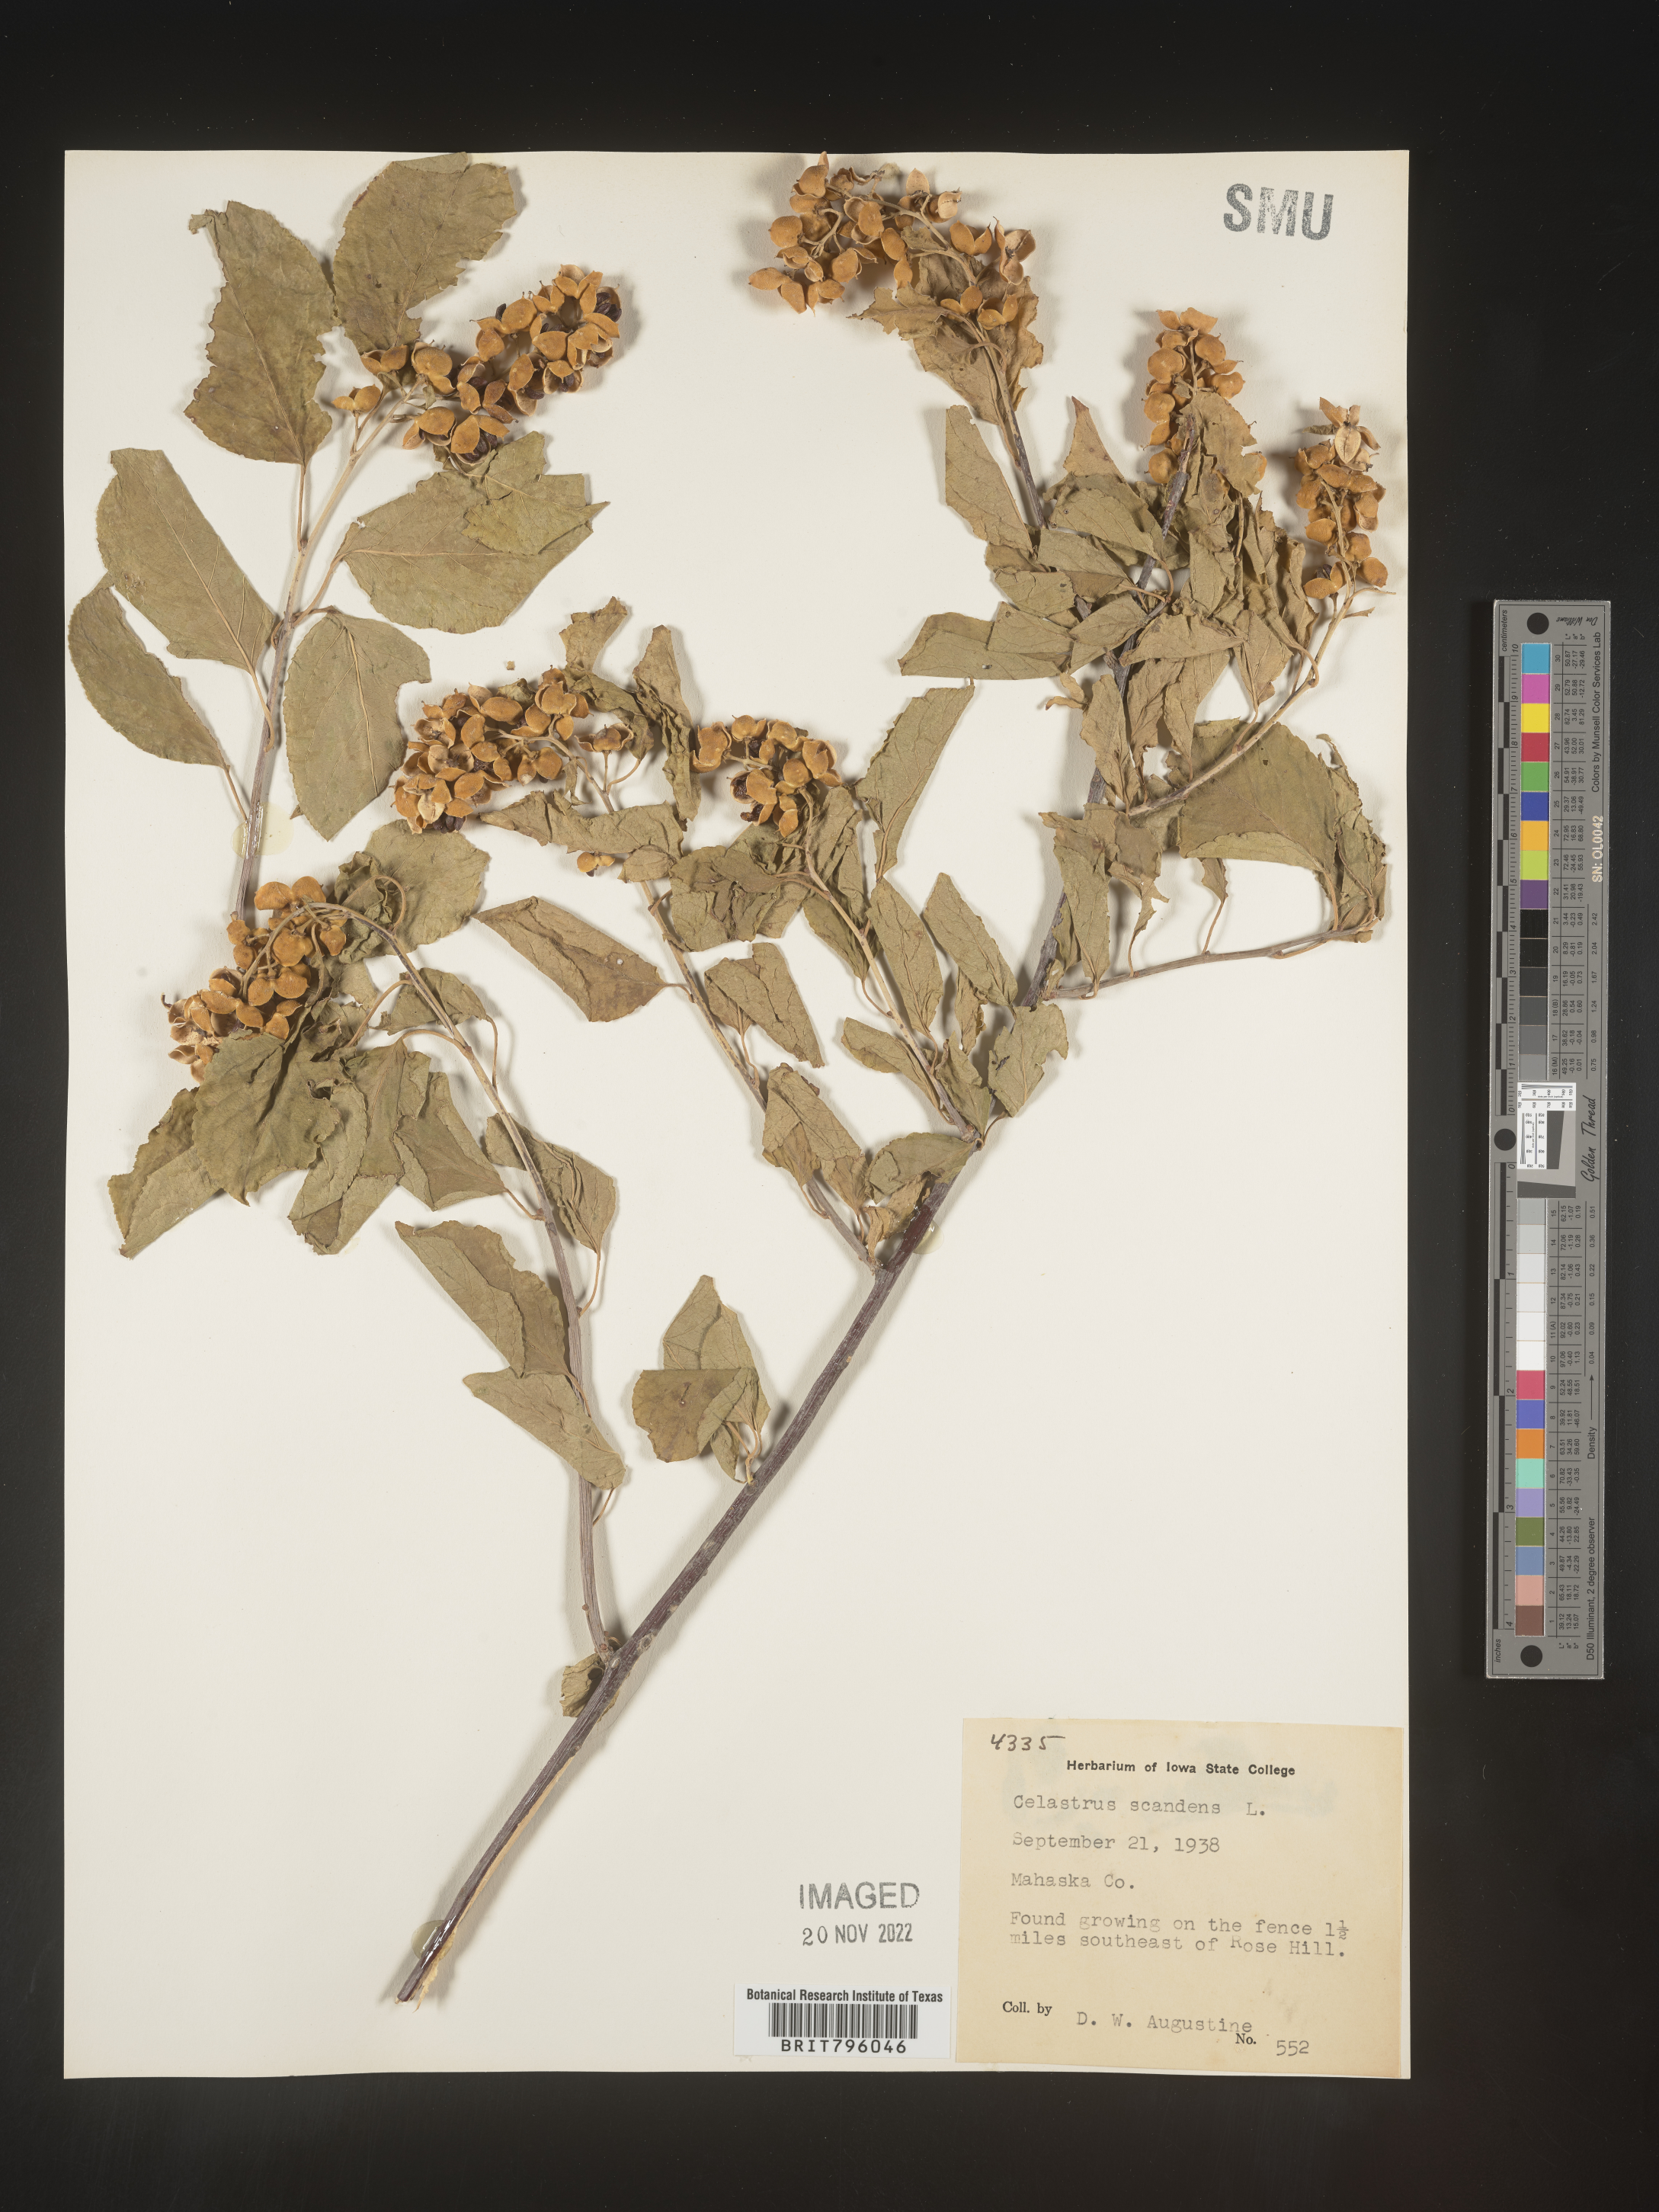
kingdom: Plantae
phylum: Tracheophyta
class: Magnoliopsida
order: Celastrales
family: Celastraceae
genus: Celastrus
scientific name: Celastrus scandens
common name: American bittersweet
